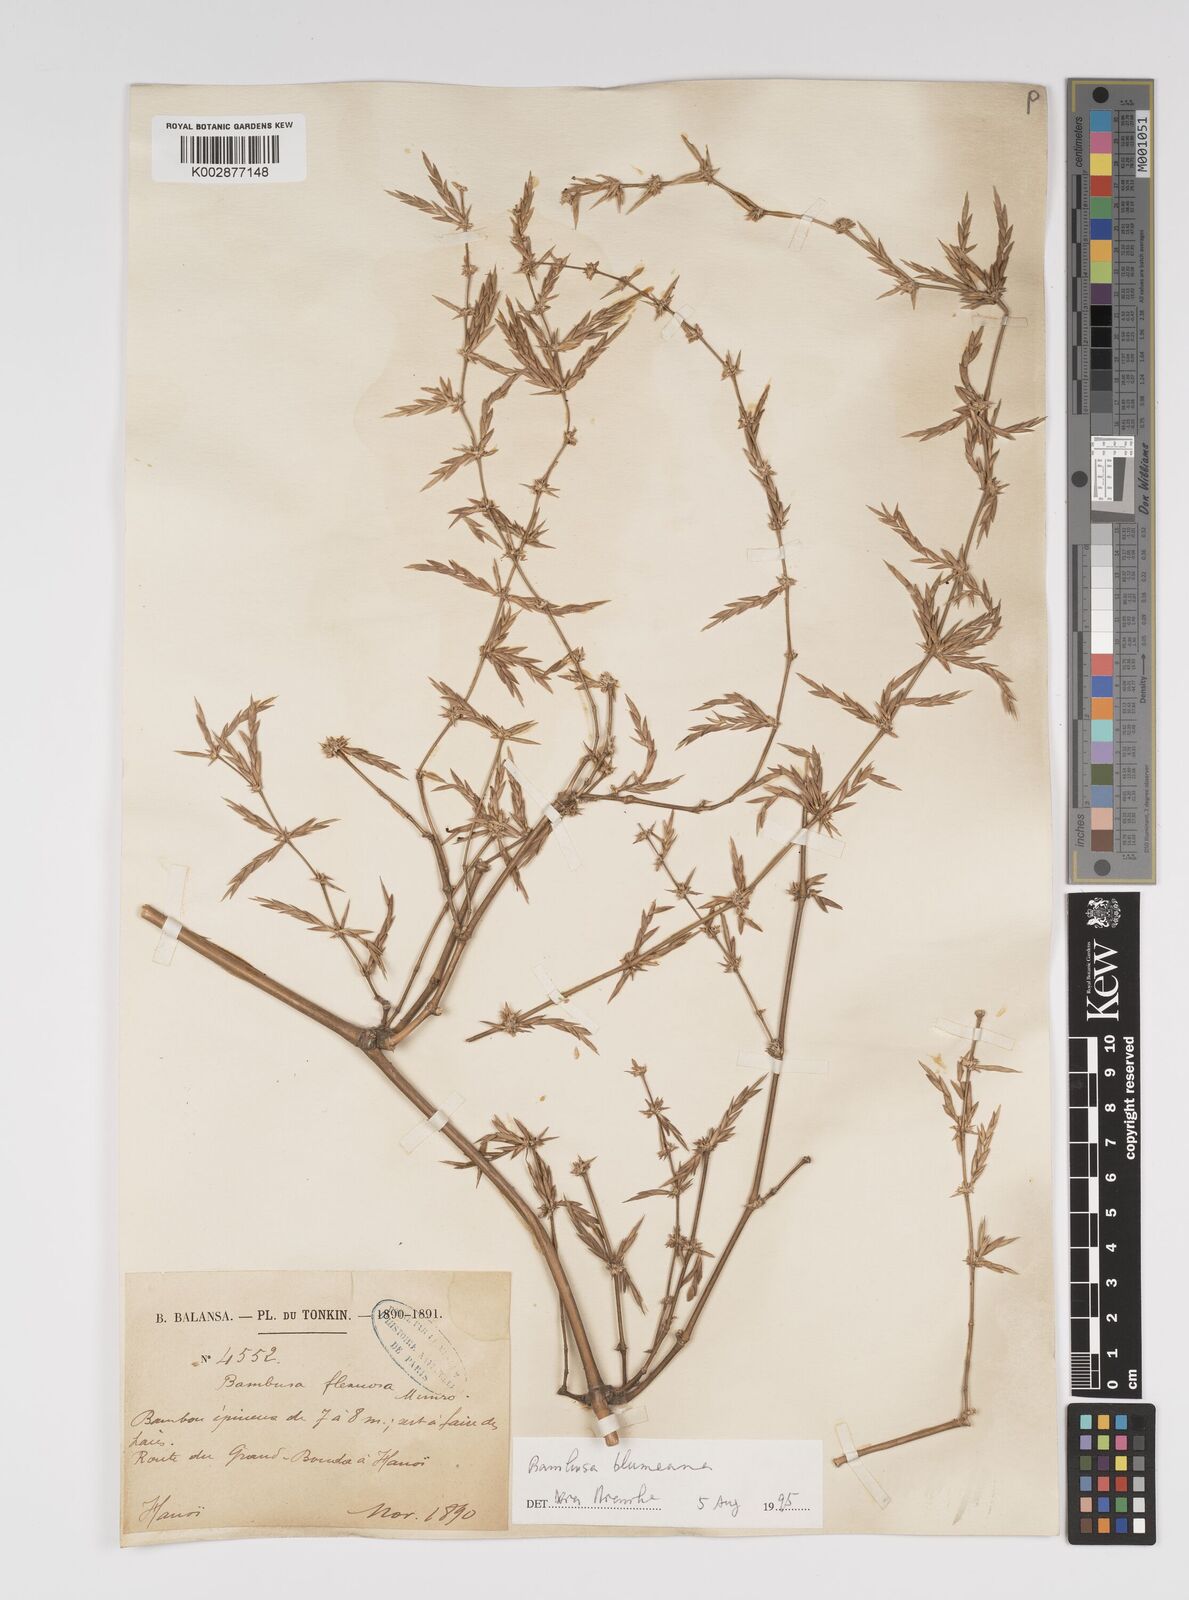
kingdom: Plantae
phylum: Tracheophyta
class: Liliopsida
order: Poales
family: Poaceae
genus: Bambusa
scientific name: Bambusa
